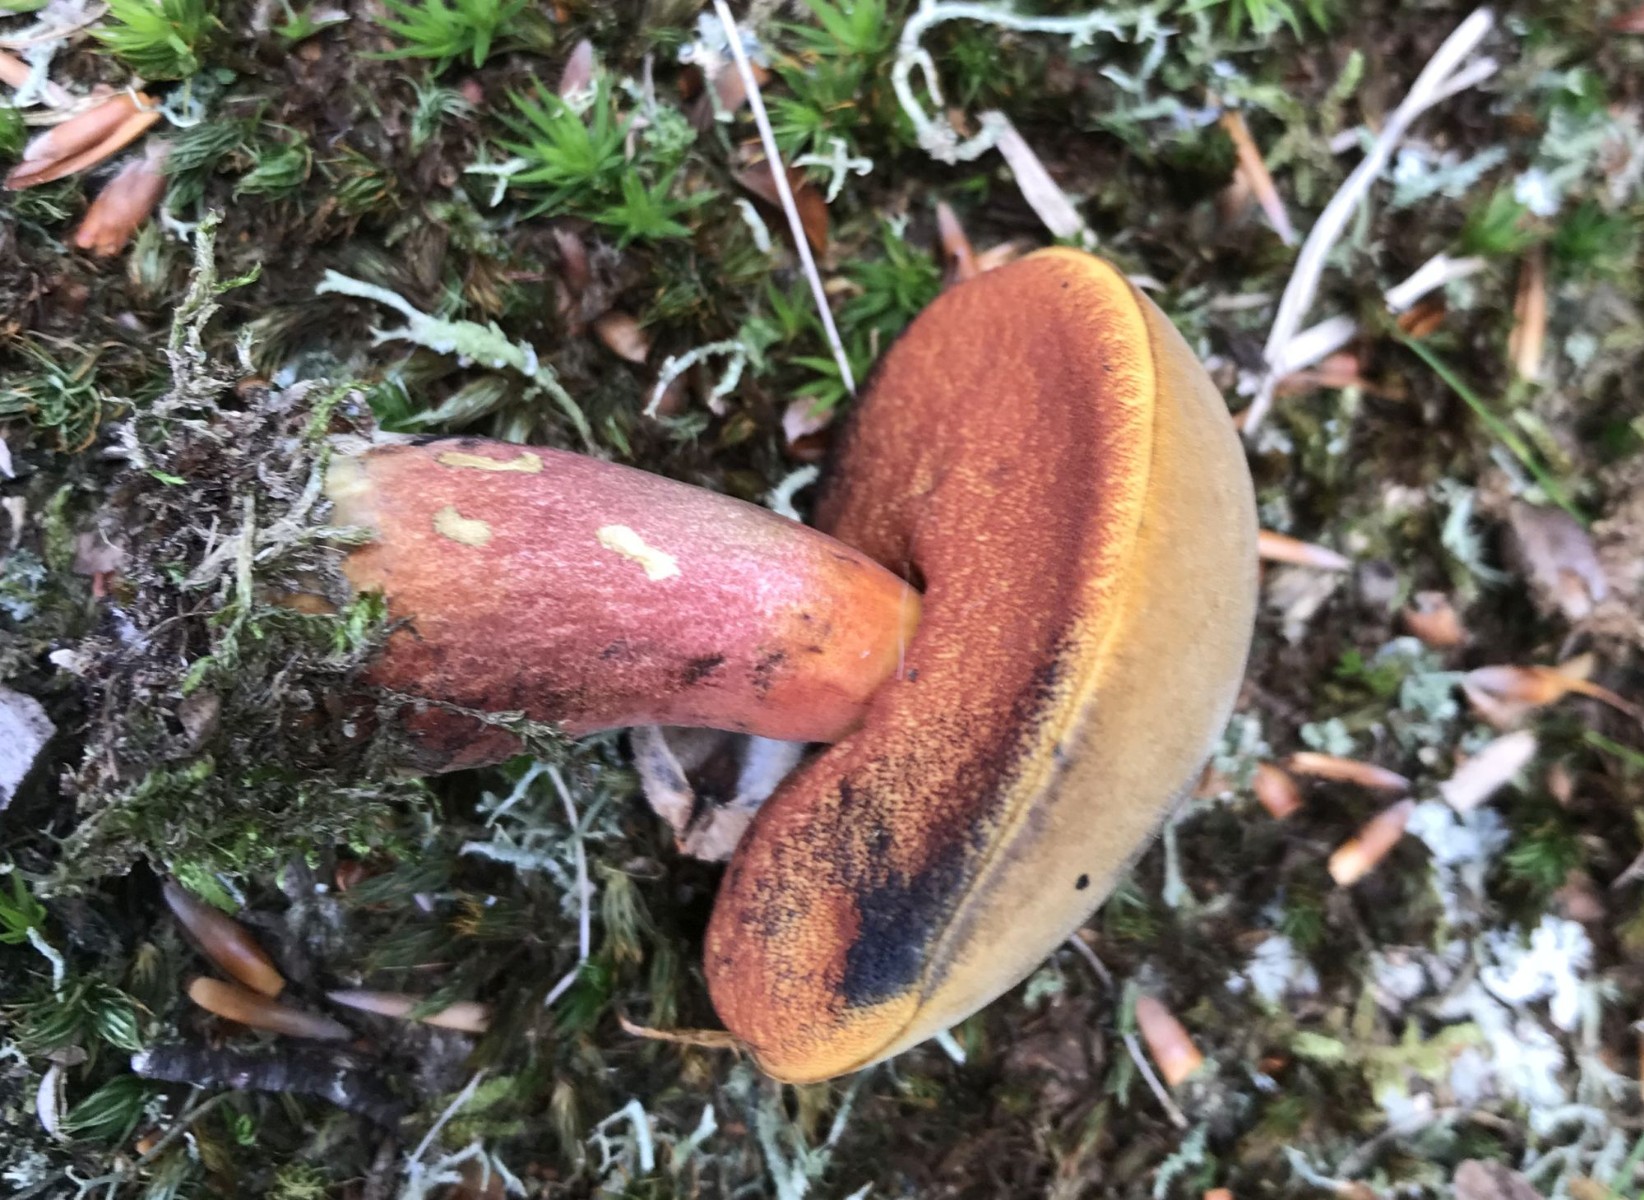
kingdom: Fungi
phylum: Basidiomycota
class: Agaricomycetes
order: Boletales
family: Boletaceae
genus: Neoboletus
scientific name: Neoboletus erythropus
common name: punktstokket indigorørhat
